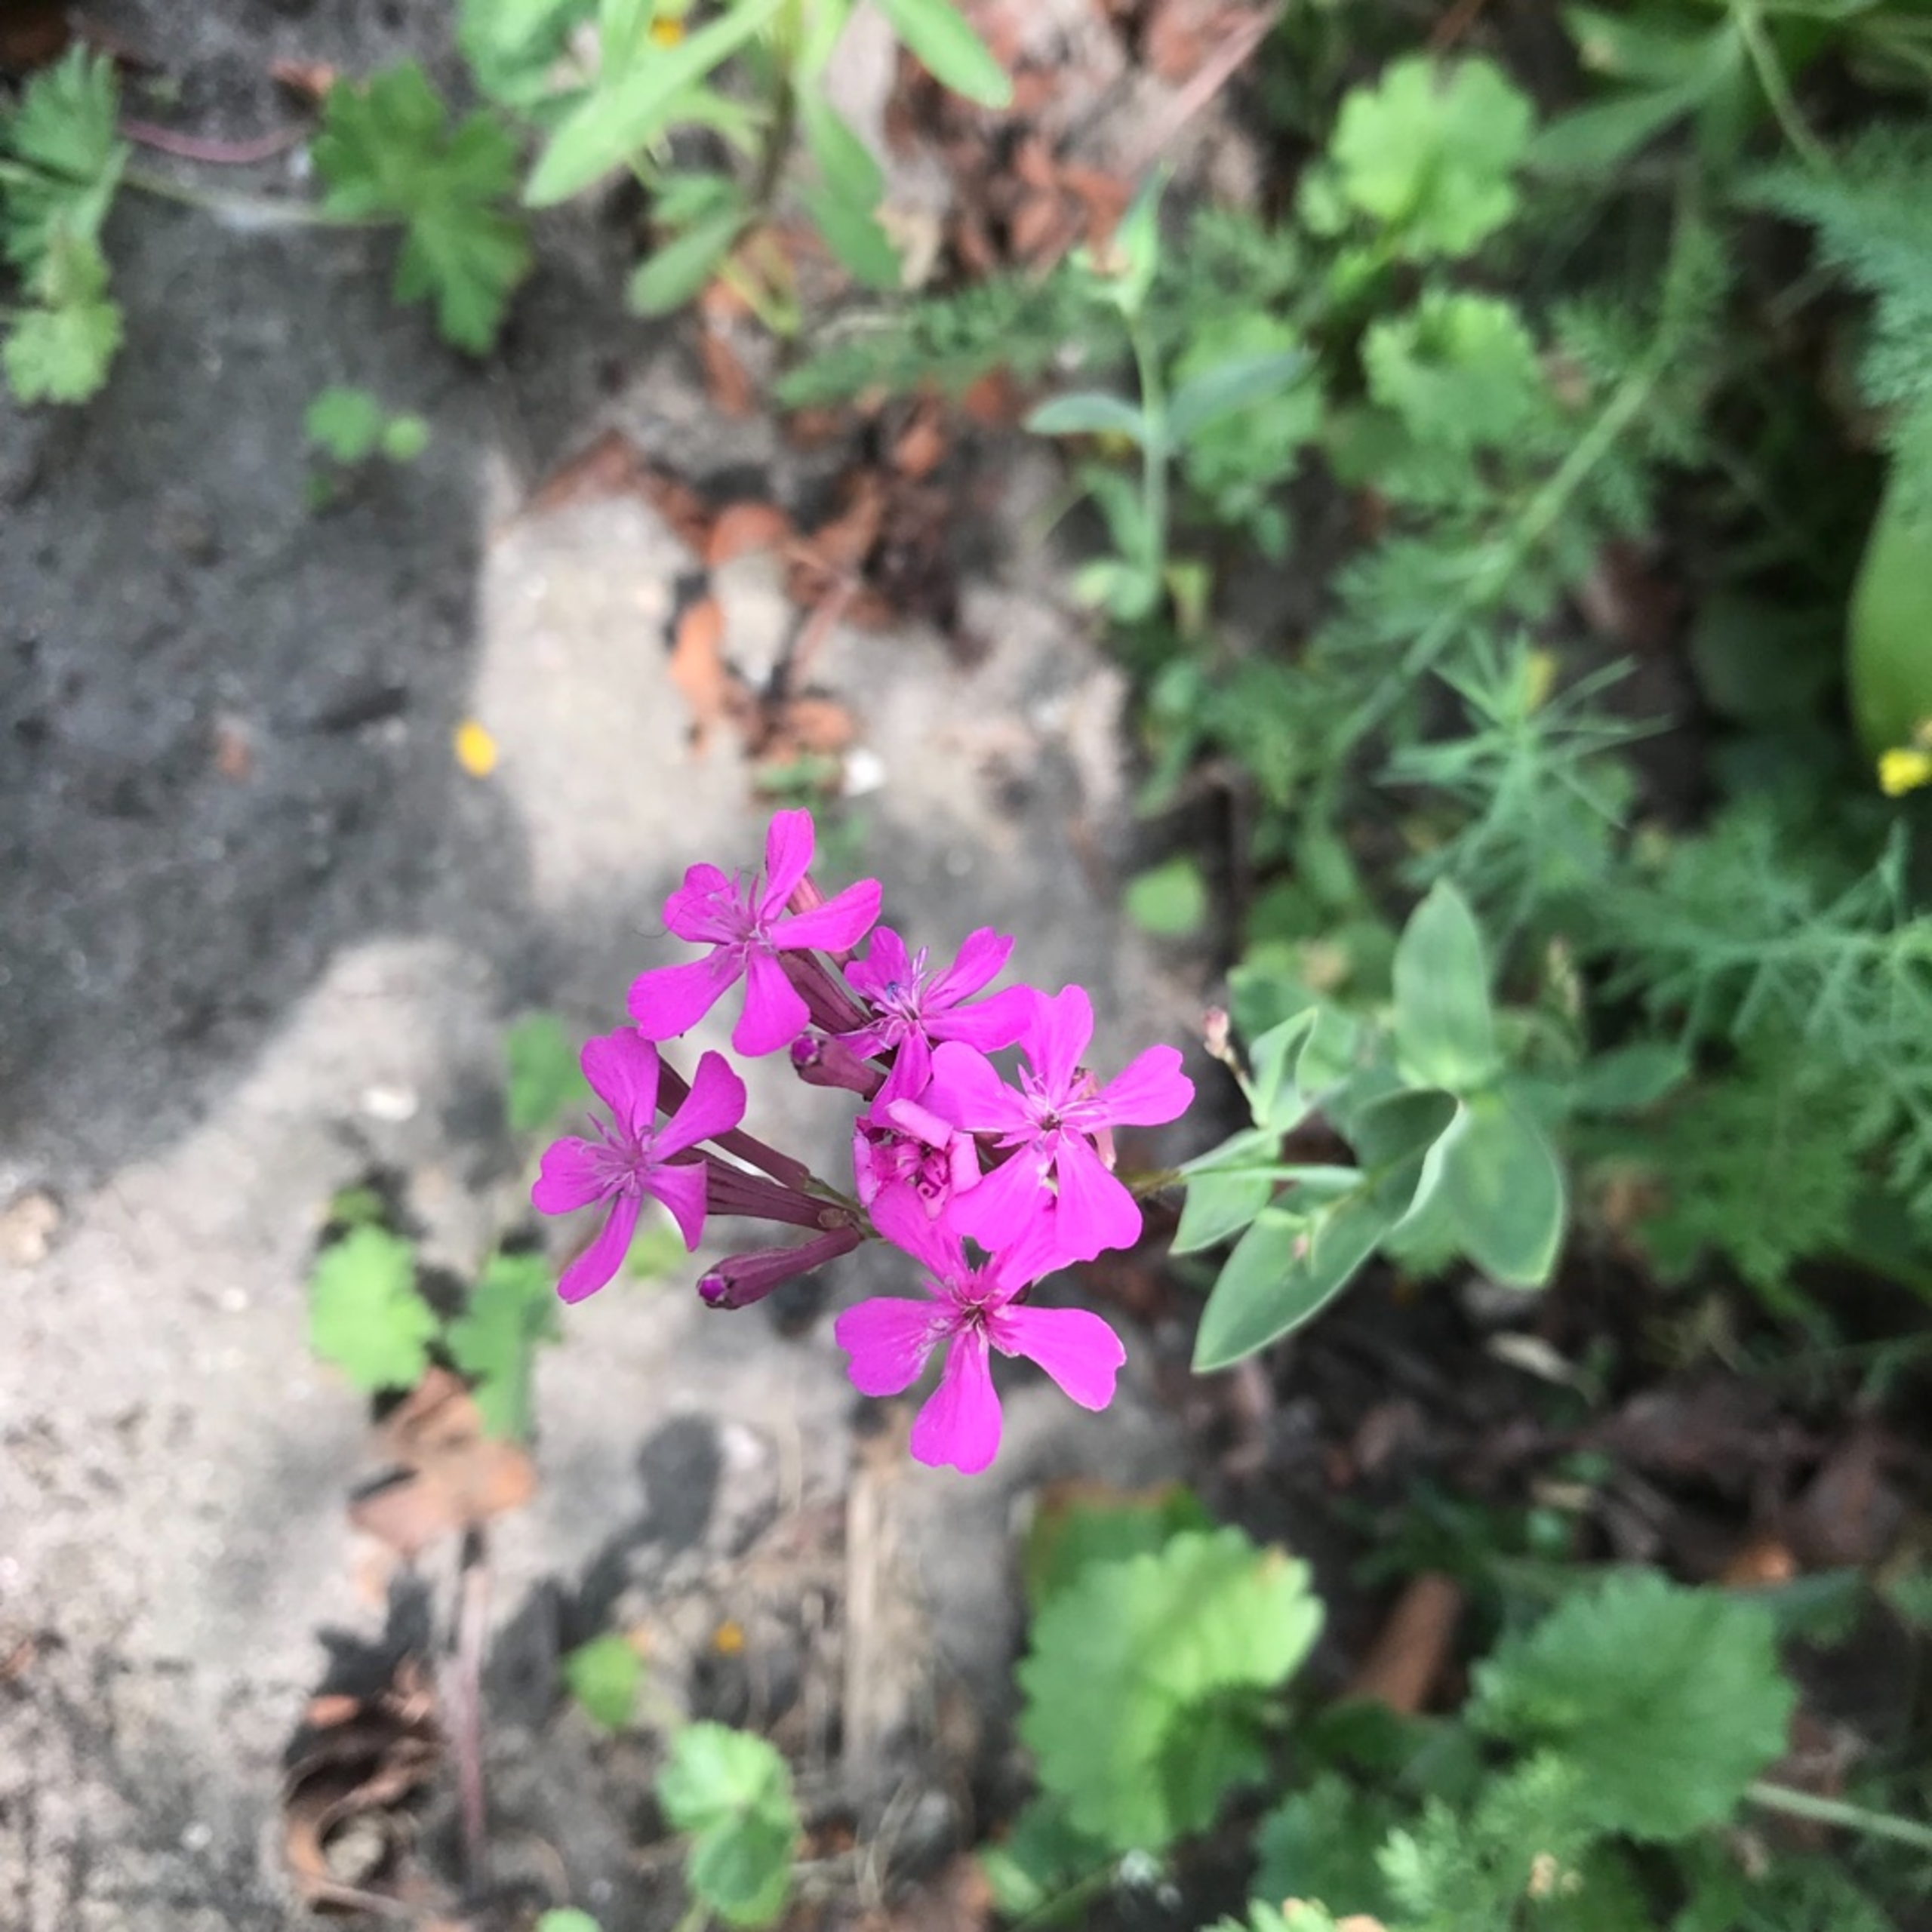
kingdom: Plantae
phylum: Tracheophyta
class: Magnoliopsida
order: Caryophyllales
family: Caryophyllaceae
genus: Atocion
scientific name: Atocion armeria
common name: Knippe-limurt
